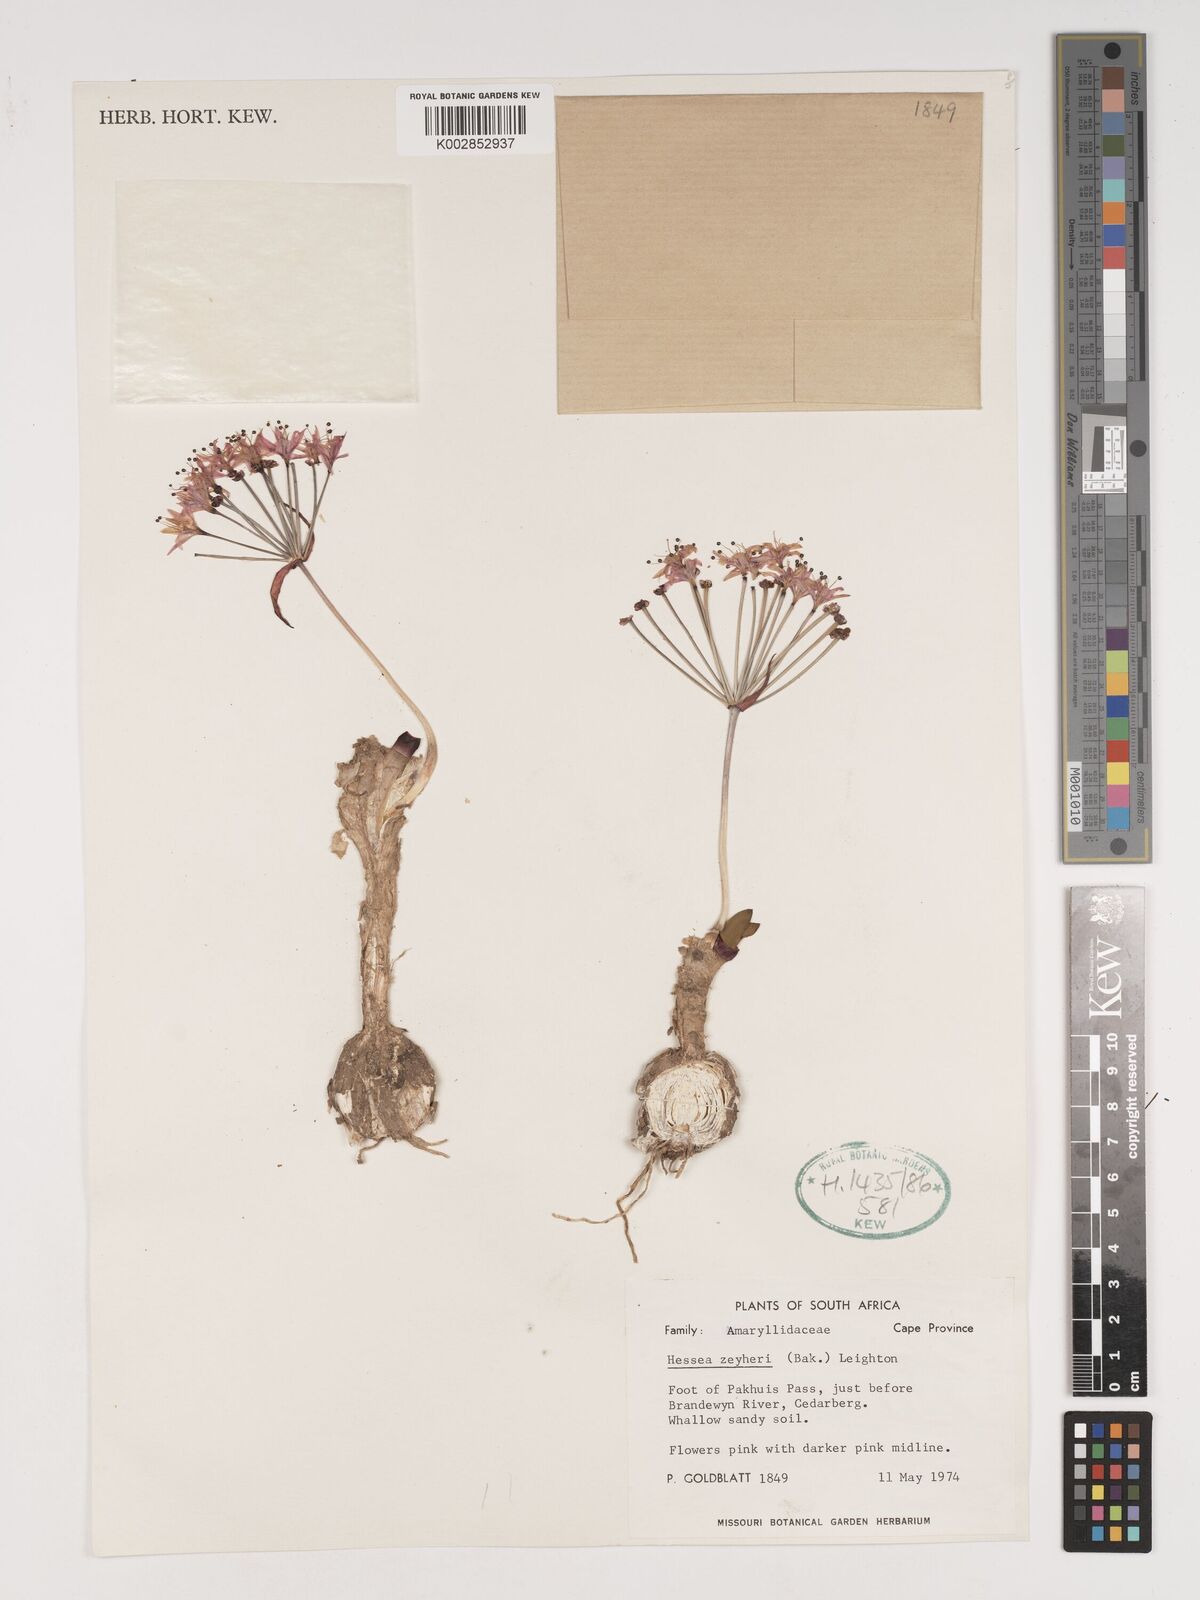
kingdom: Plantae
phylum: Tracheophyta
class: Liliopsida
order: Asparagales
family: Amaryllidaceae
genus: Hessea
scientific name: Hessea breviflora
